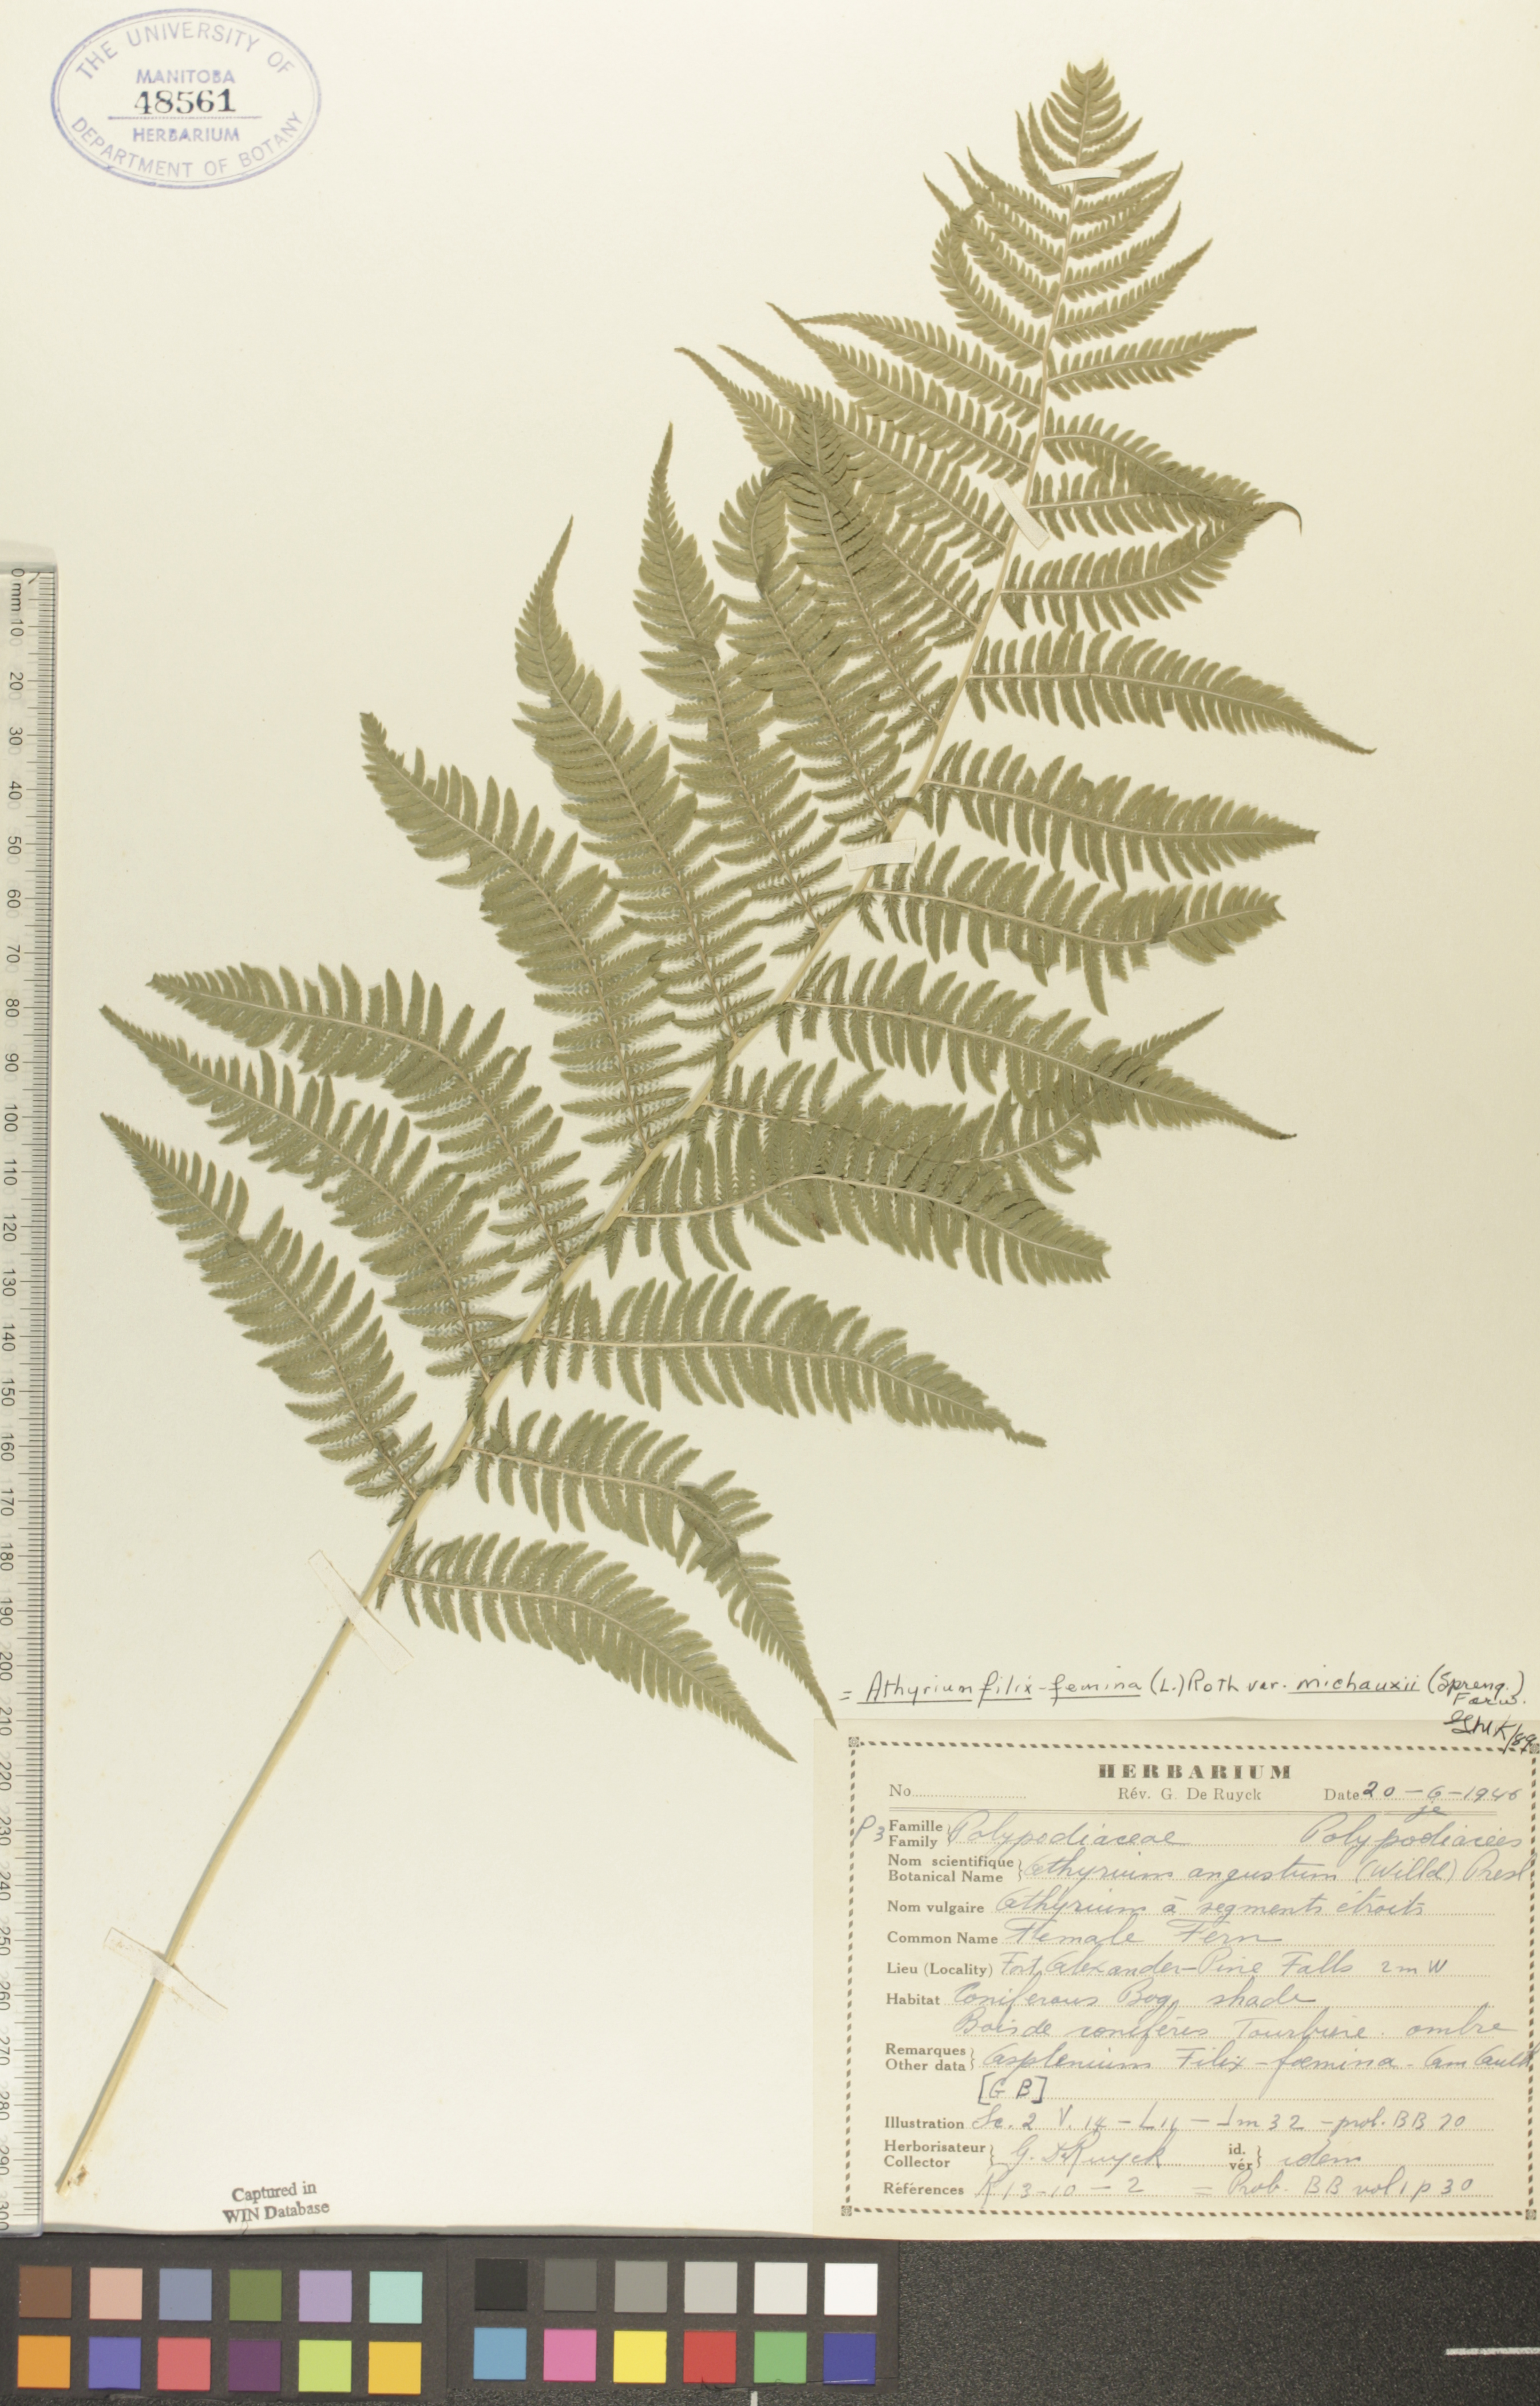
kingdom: Plantae
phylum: Tracheophyta
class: Polypodiopsida
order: Polypodiales
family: Athyriaceae
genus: Athyrium
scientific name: Athyrium angustum
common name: Northern lady fern
